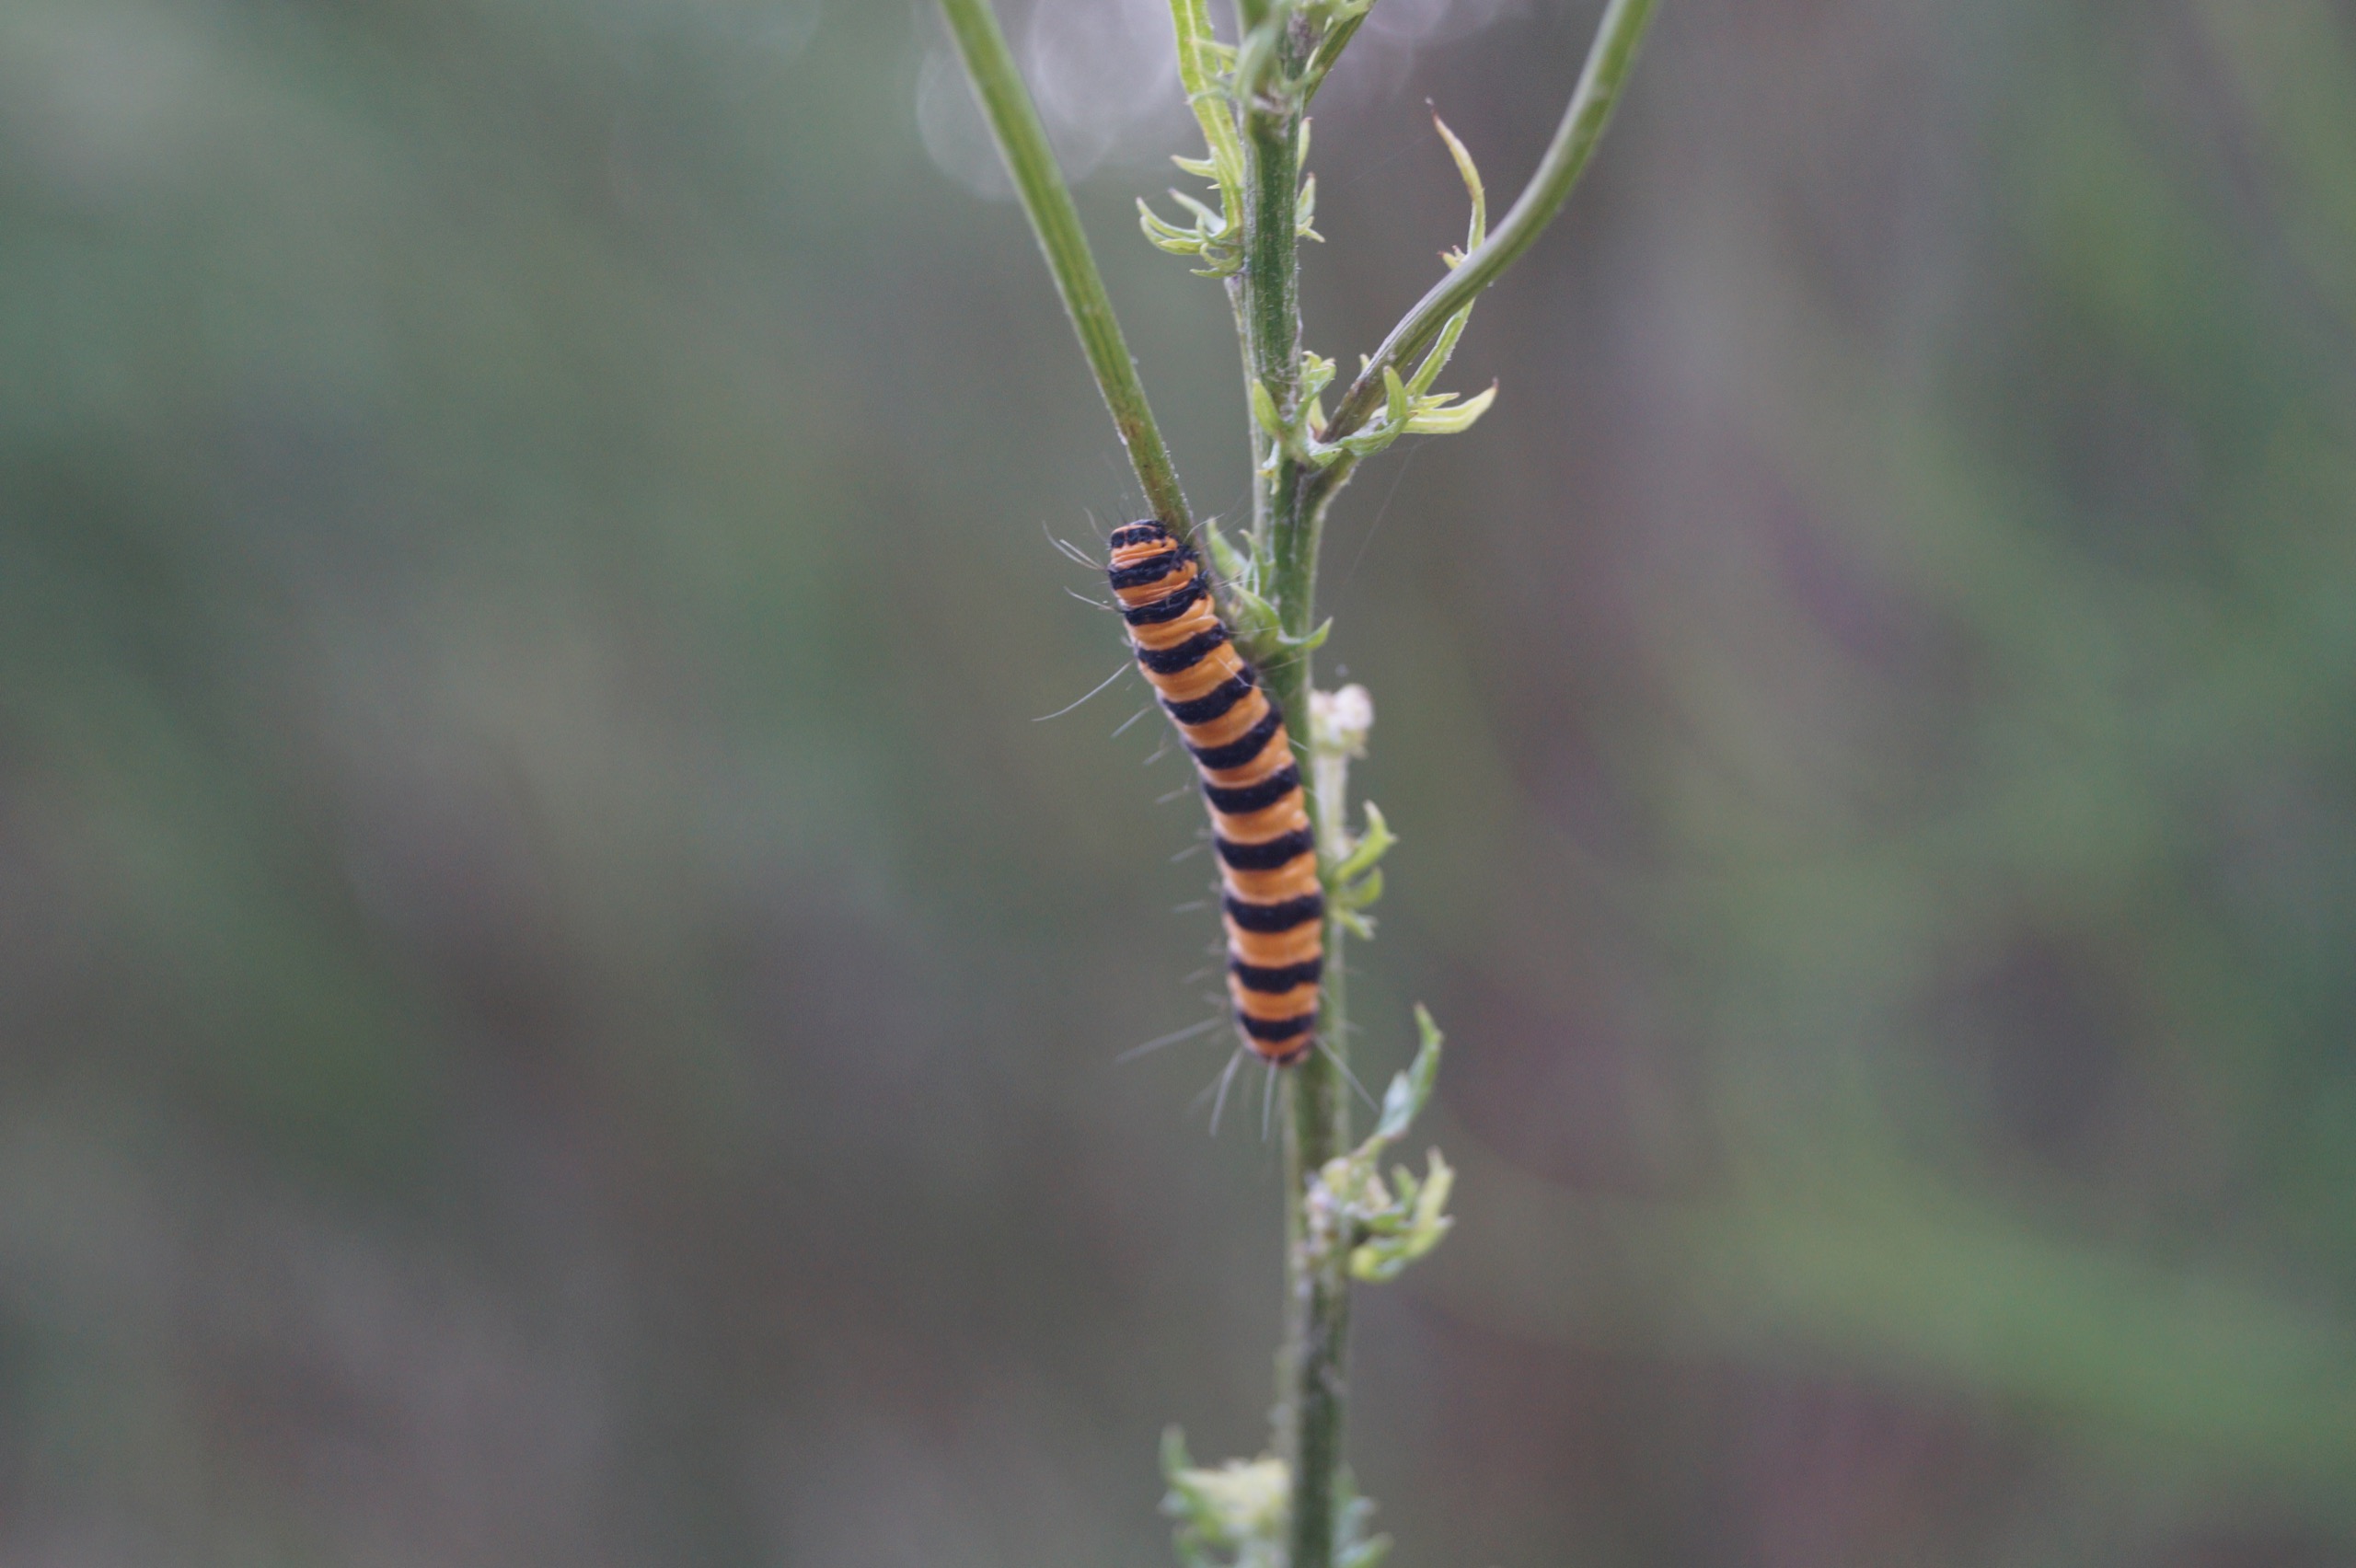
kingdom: Animalia
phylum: Arthropoda
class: Insecta
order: Lepidoptera
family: Erebidae
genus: Tyria
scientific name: Tyria jacobaeae
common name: Blodplet
